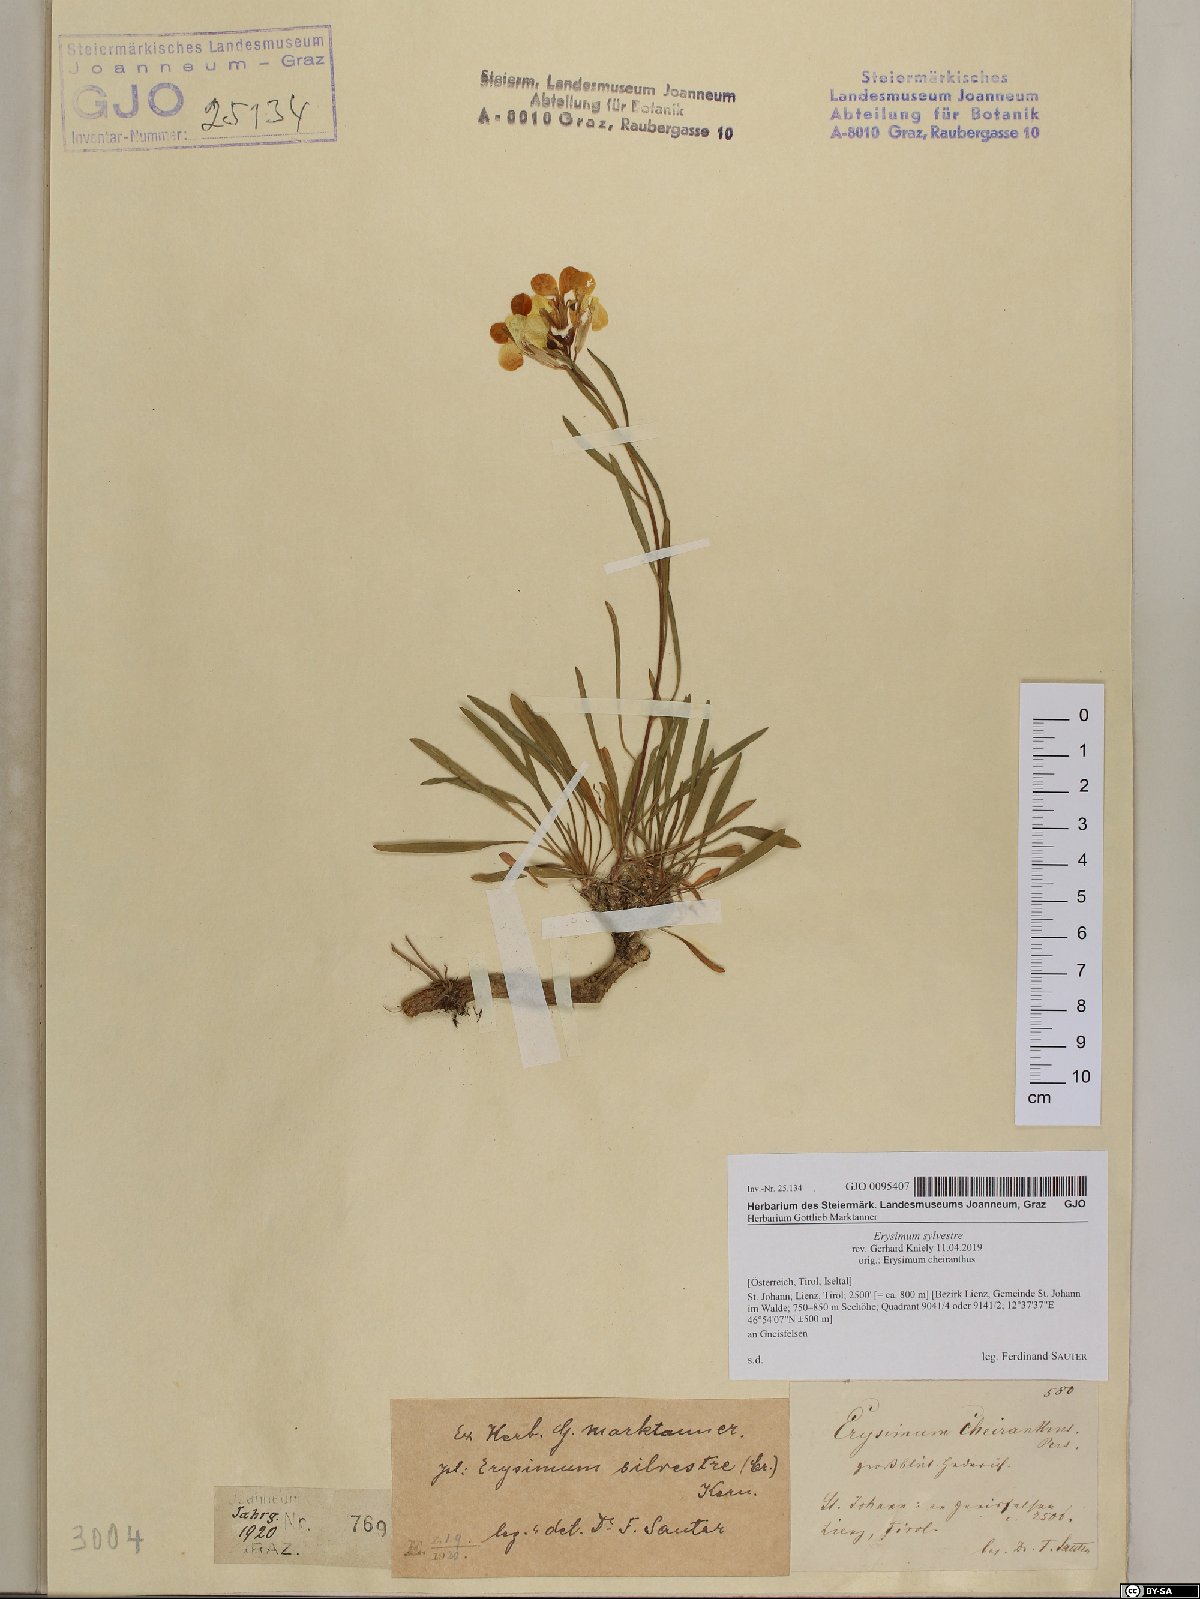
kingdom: Plantae
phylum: Tracheophyta
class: Magnoliopsida
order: Brassicales
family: Brassicaceae
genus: Erysimum
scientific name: Erysimum sylvestre
